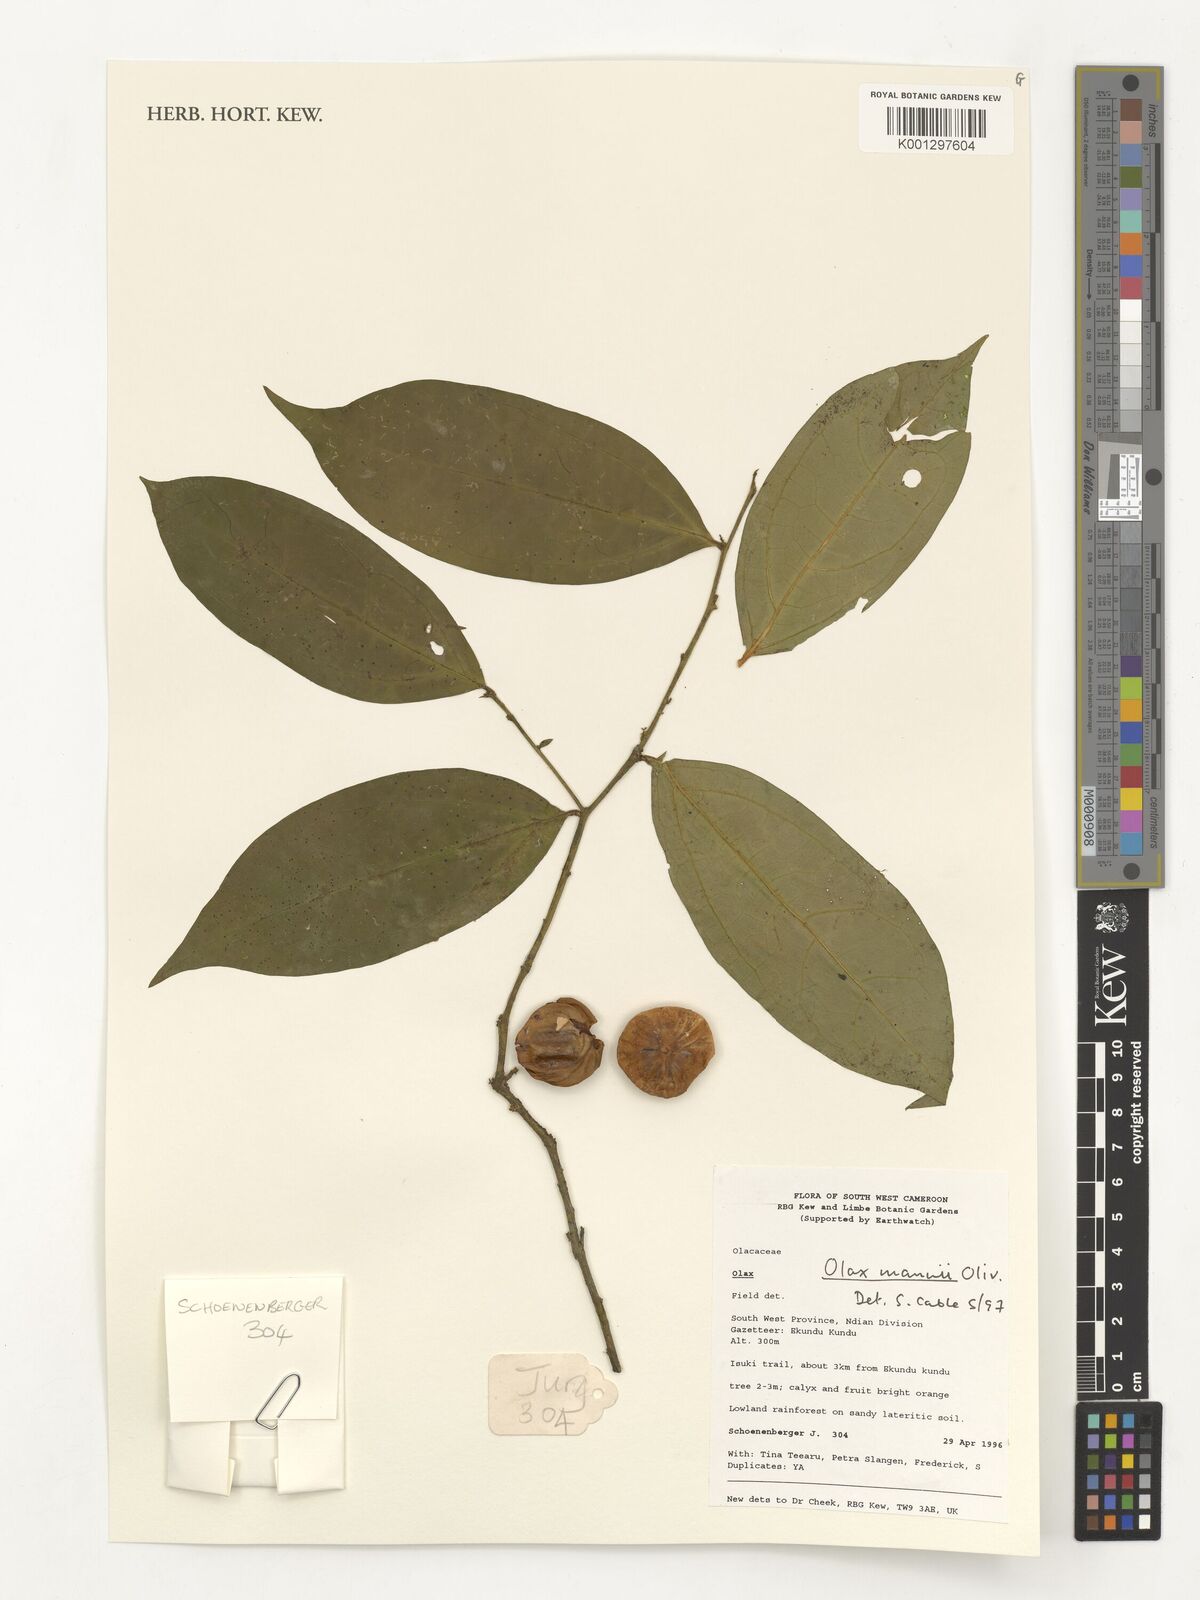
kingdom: Plantae
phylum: Tracheophyta
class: Magnoliopsida
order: Santalales
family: Olacaceae
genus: Olax
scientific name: Olax mannii
